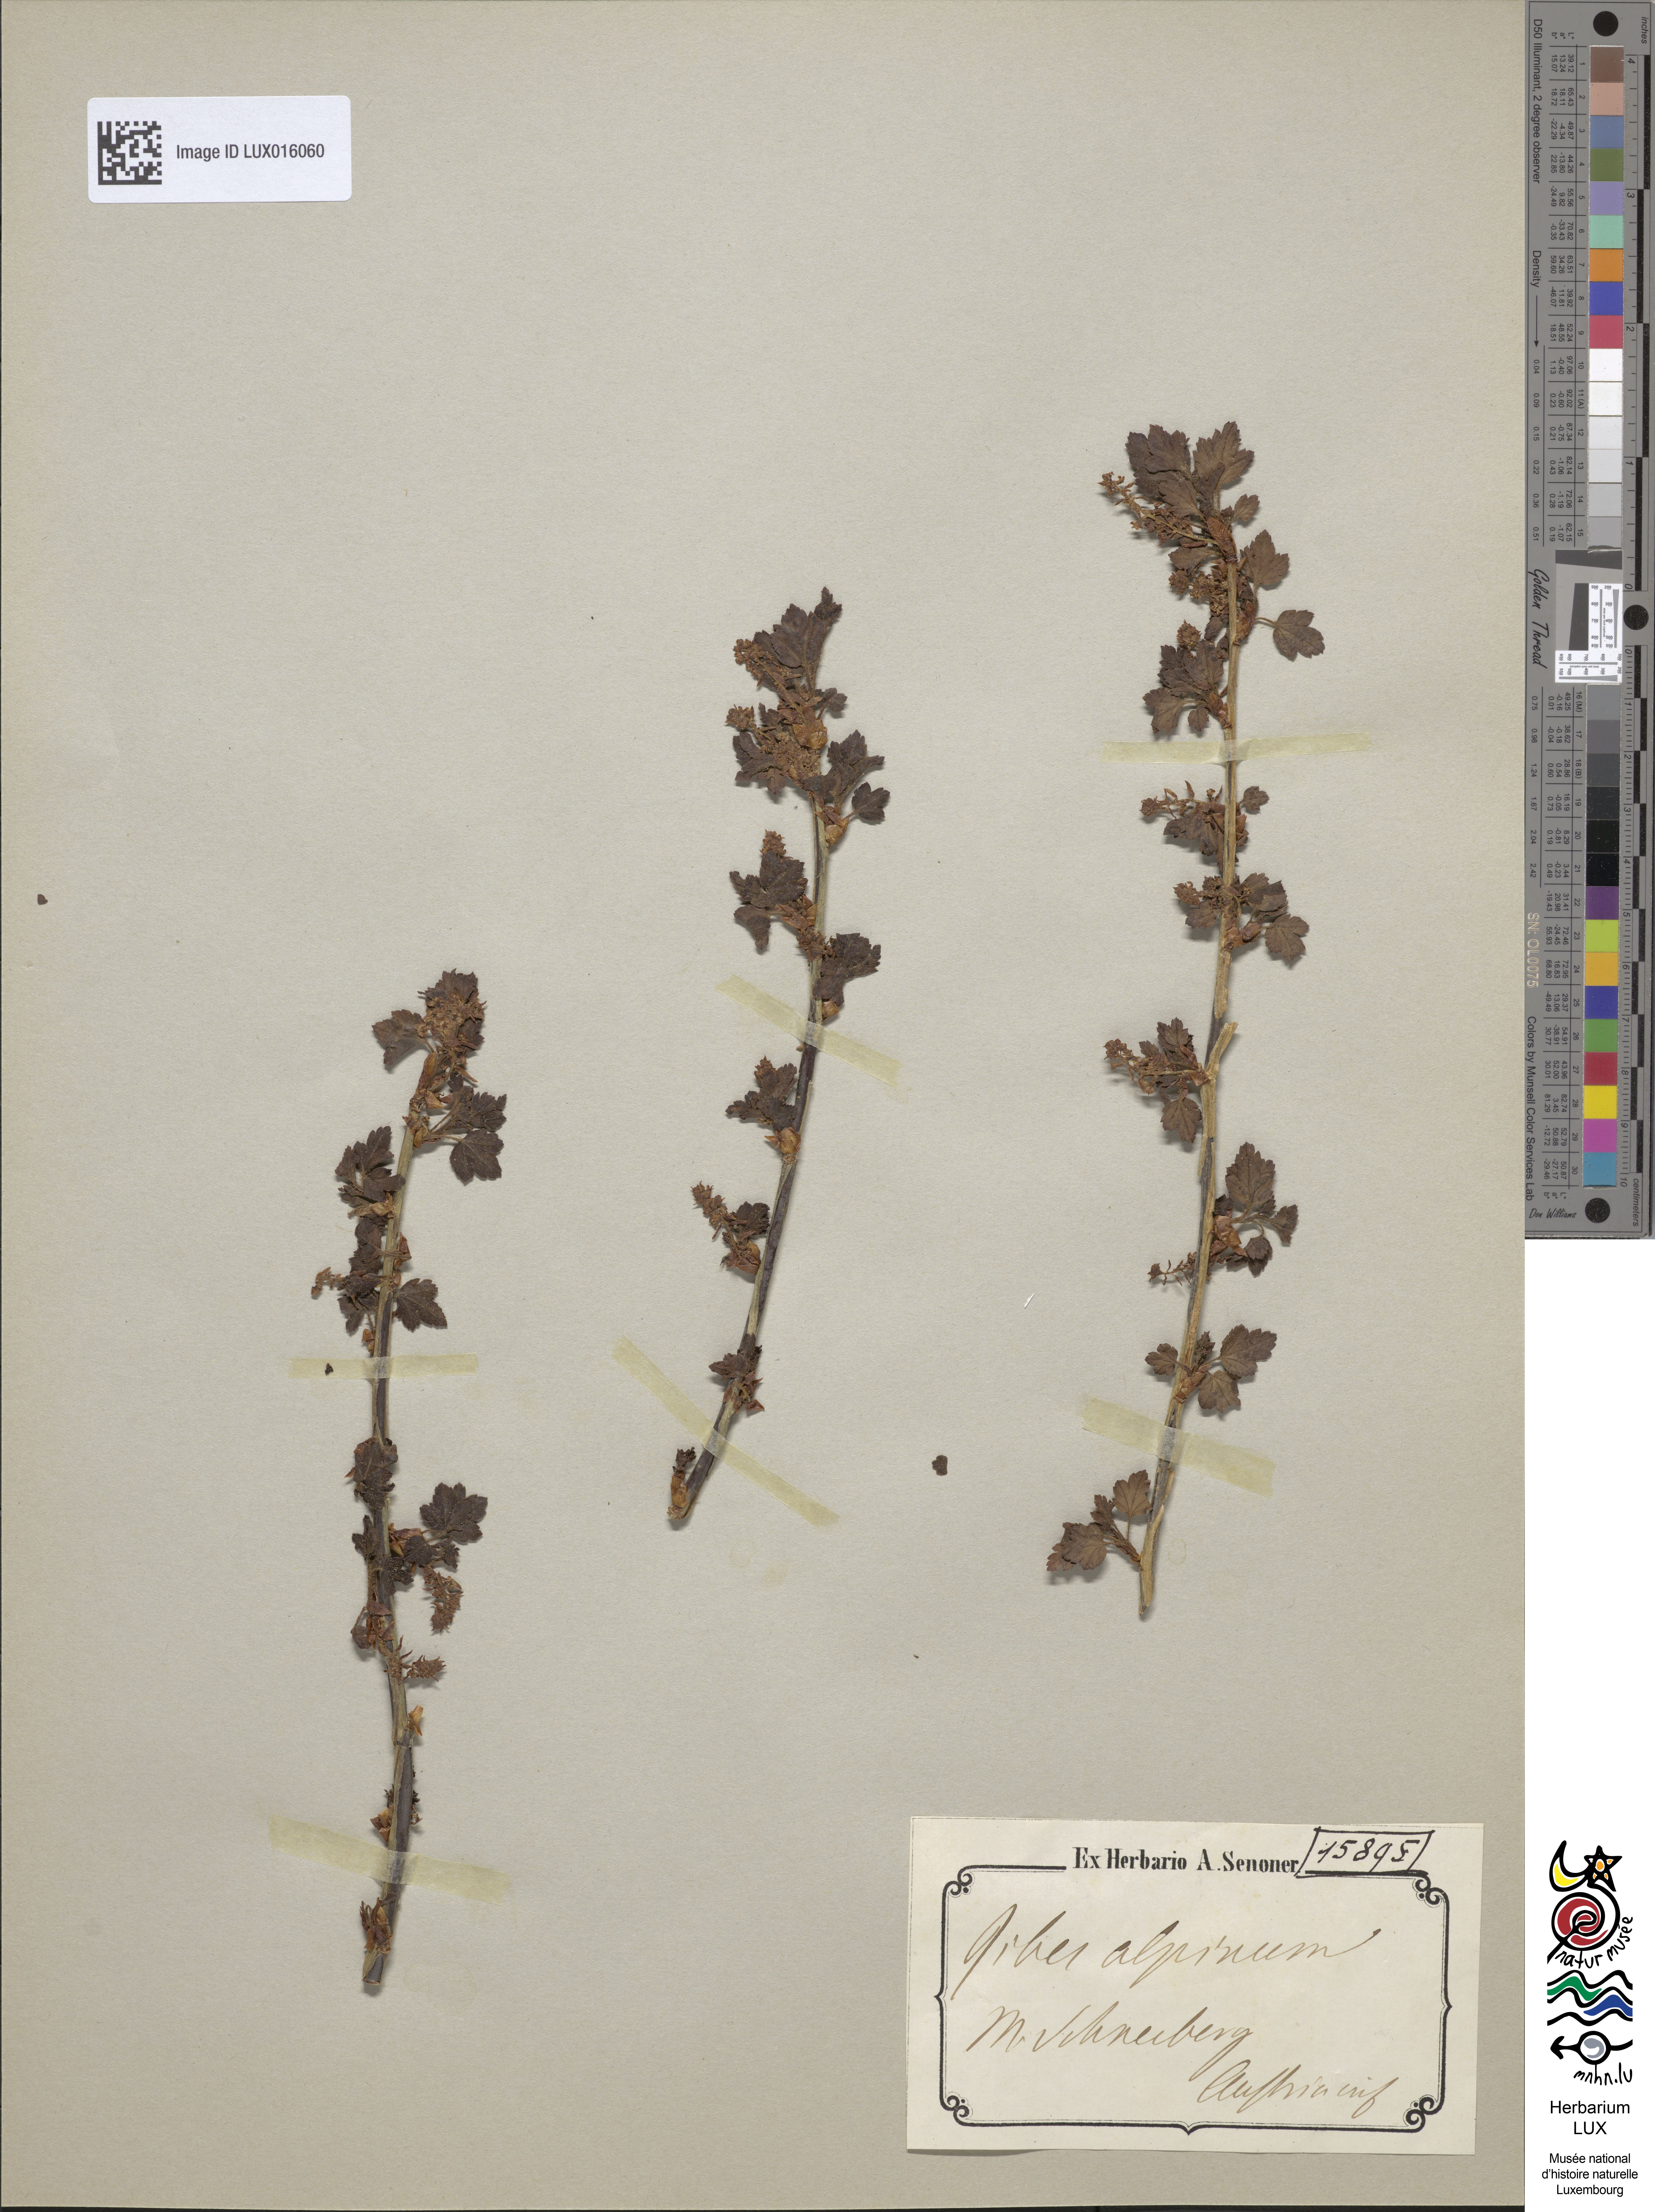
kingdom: Plantae
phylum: Tracheophyta
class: Magnoliopsida
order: Saxifragales
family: Grossulariaceae
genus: Ribes
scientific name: Ribes alpinum
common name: Alpine currant
